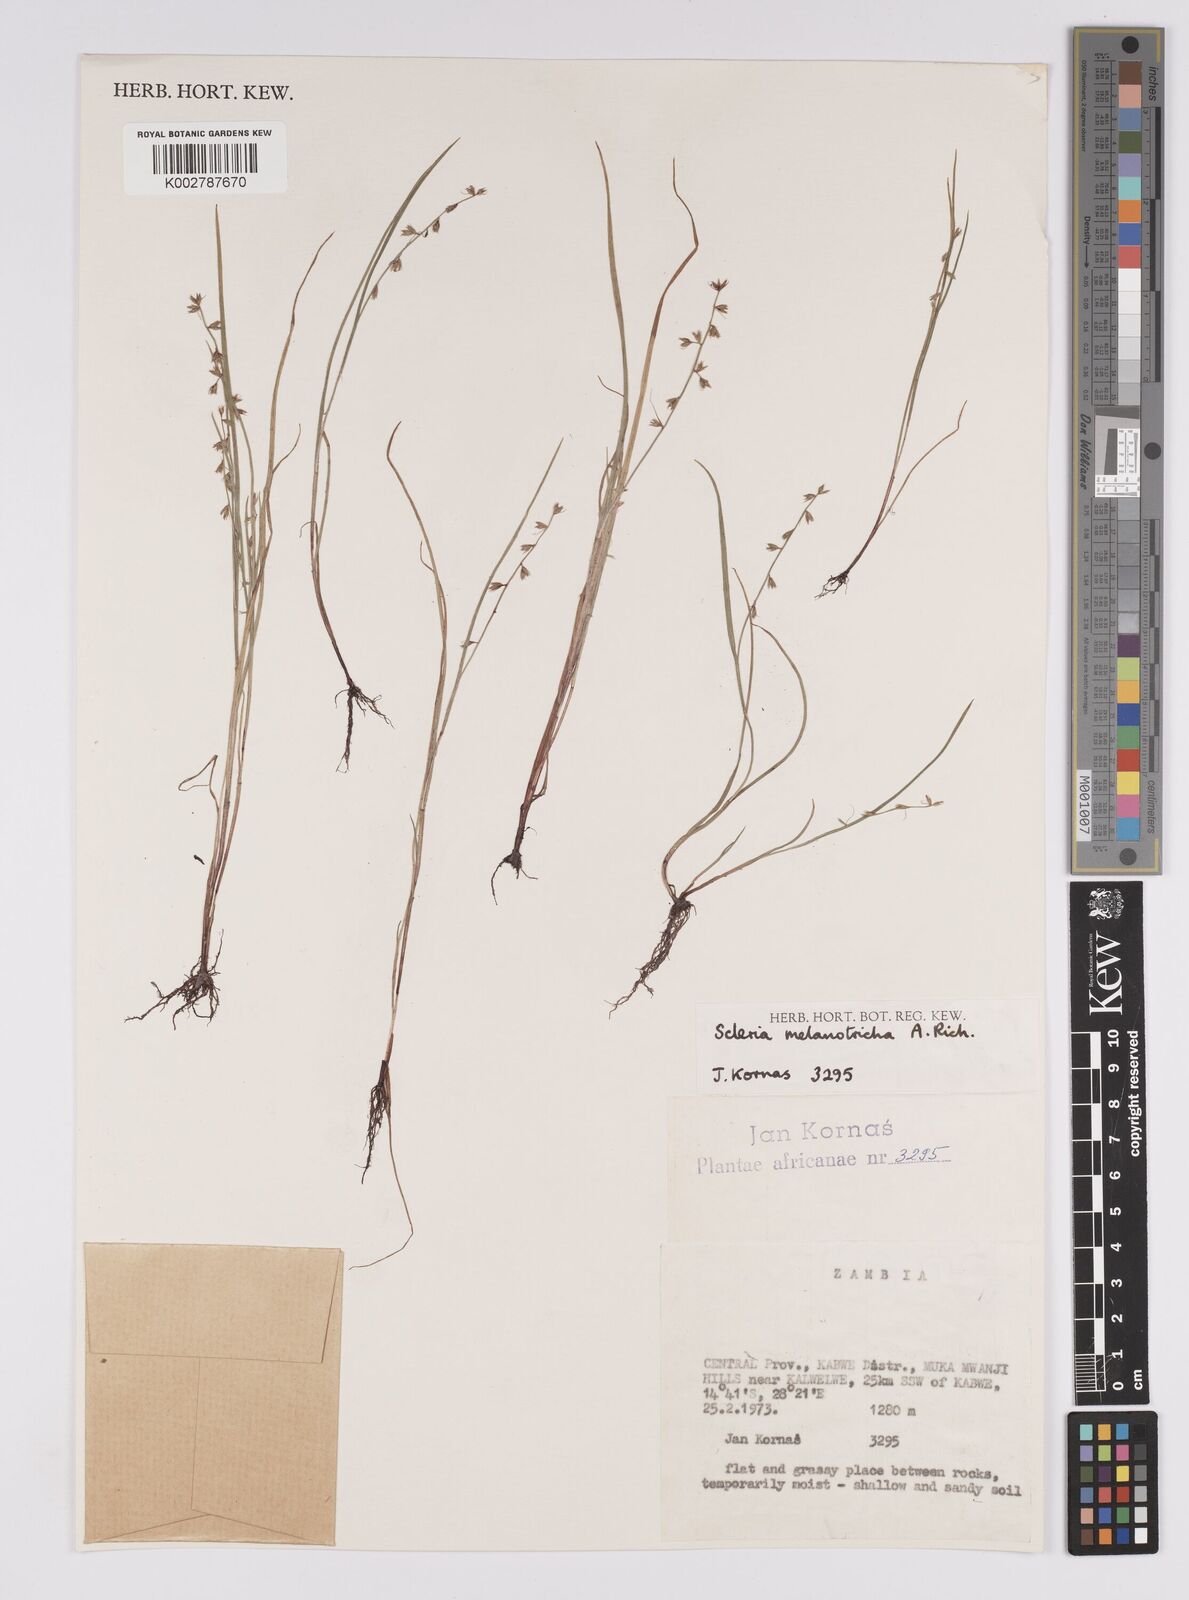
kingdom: Plantae
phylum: Tracheophyta
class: Liliopsida
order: Poales
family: Cyperaceae
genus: Scleria
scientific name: Scleria melanotricha
